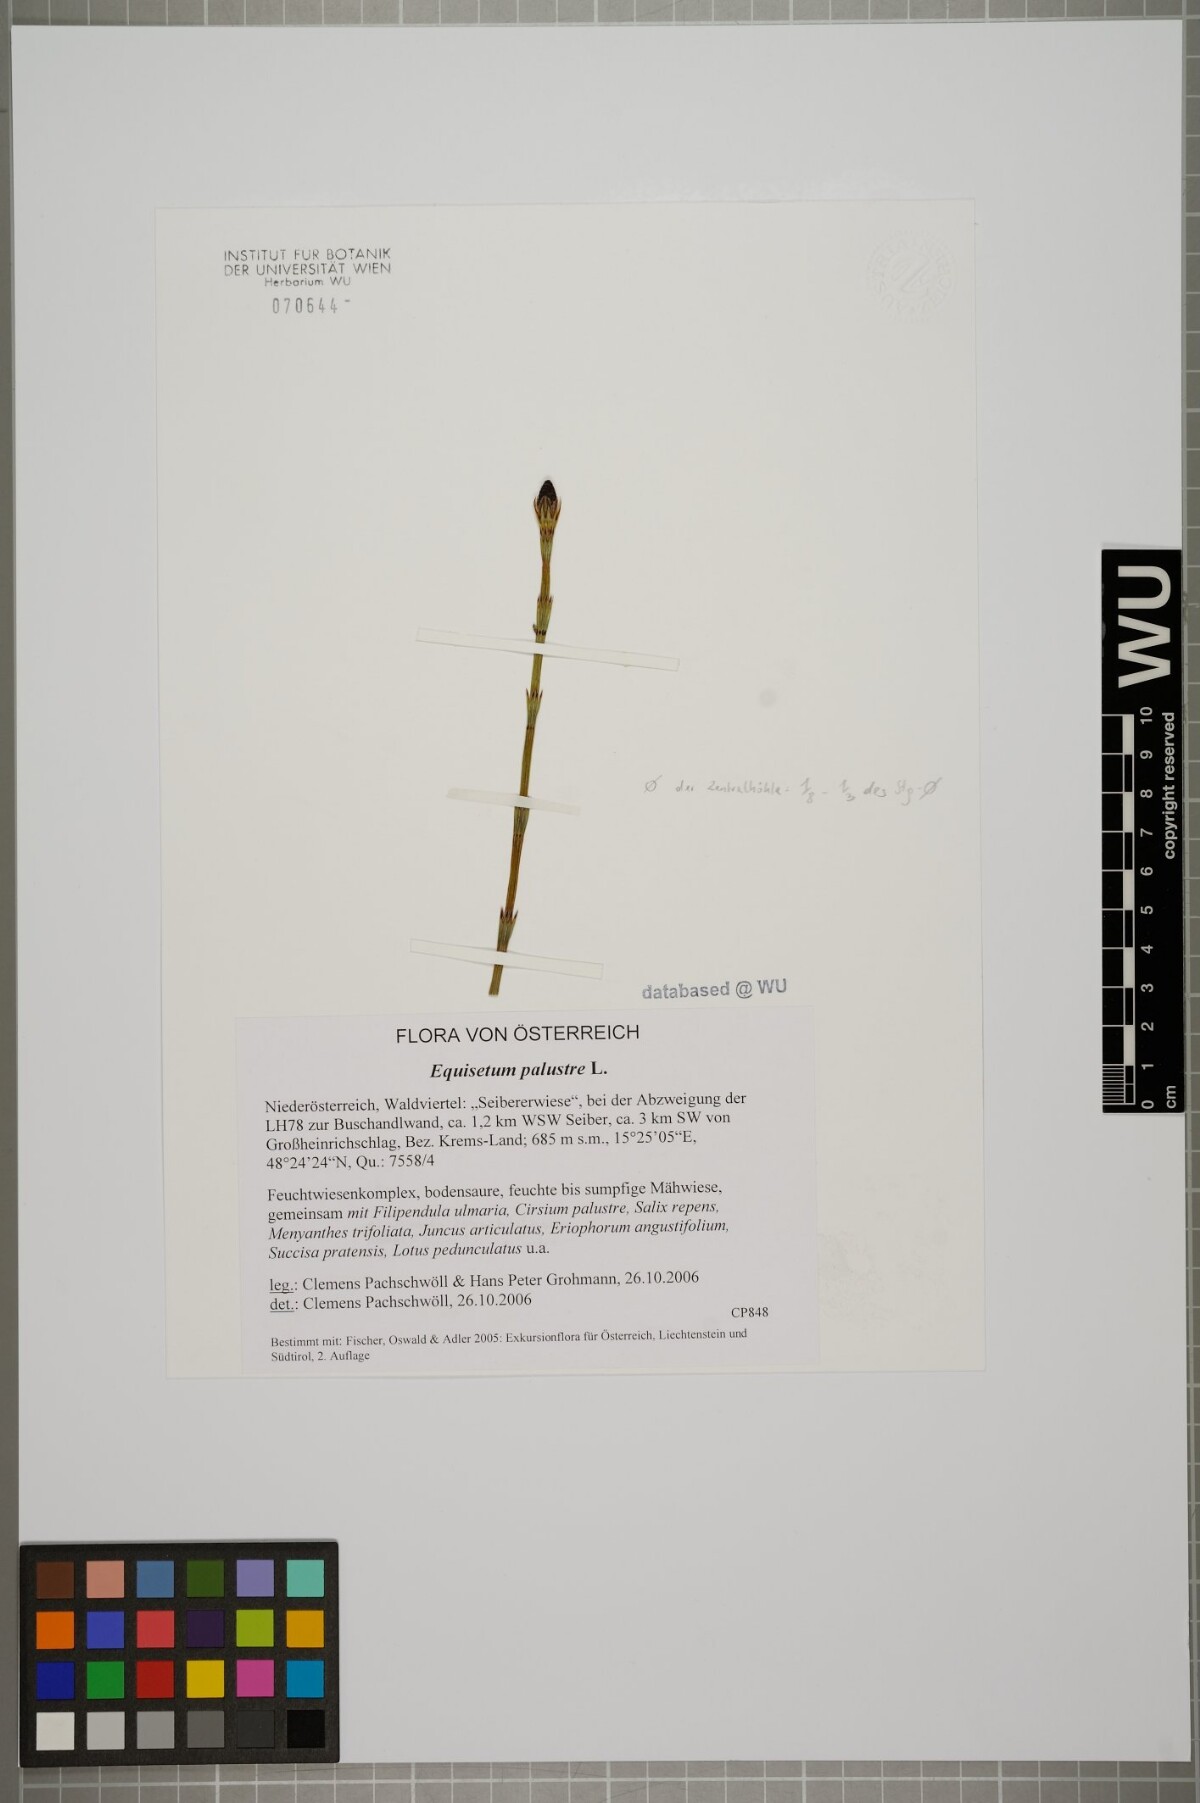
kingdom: Plantae
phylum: Tracheophyta
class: Polypodiopsida
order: Equisetales
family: Equisetaceae
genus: Equisetum
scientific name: Equisetum palustre
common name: Marsh horsetail
